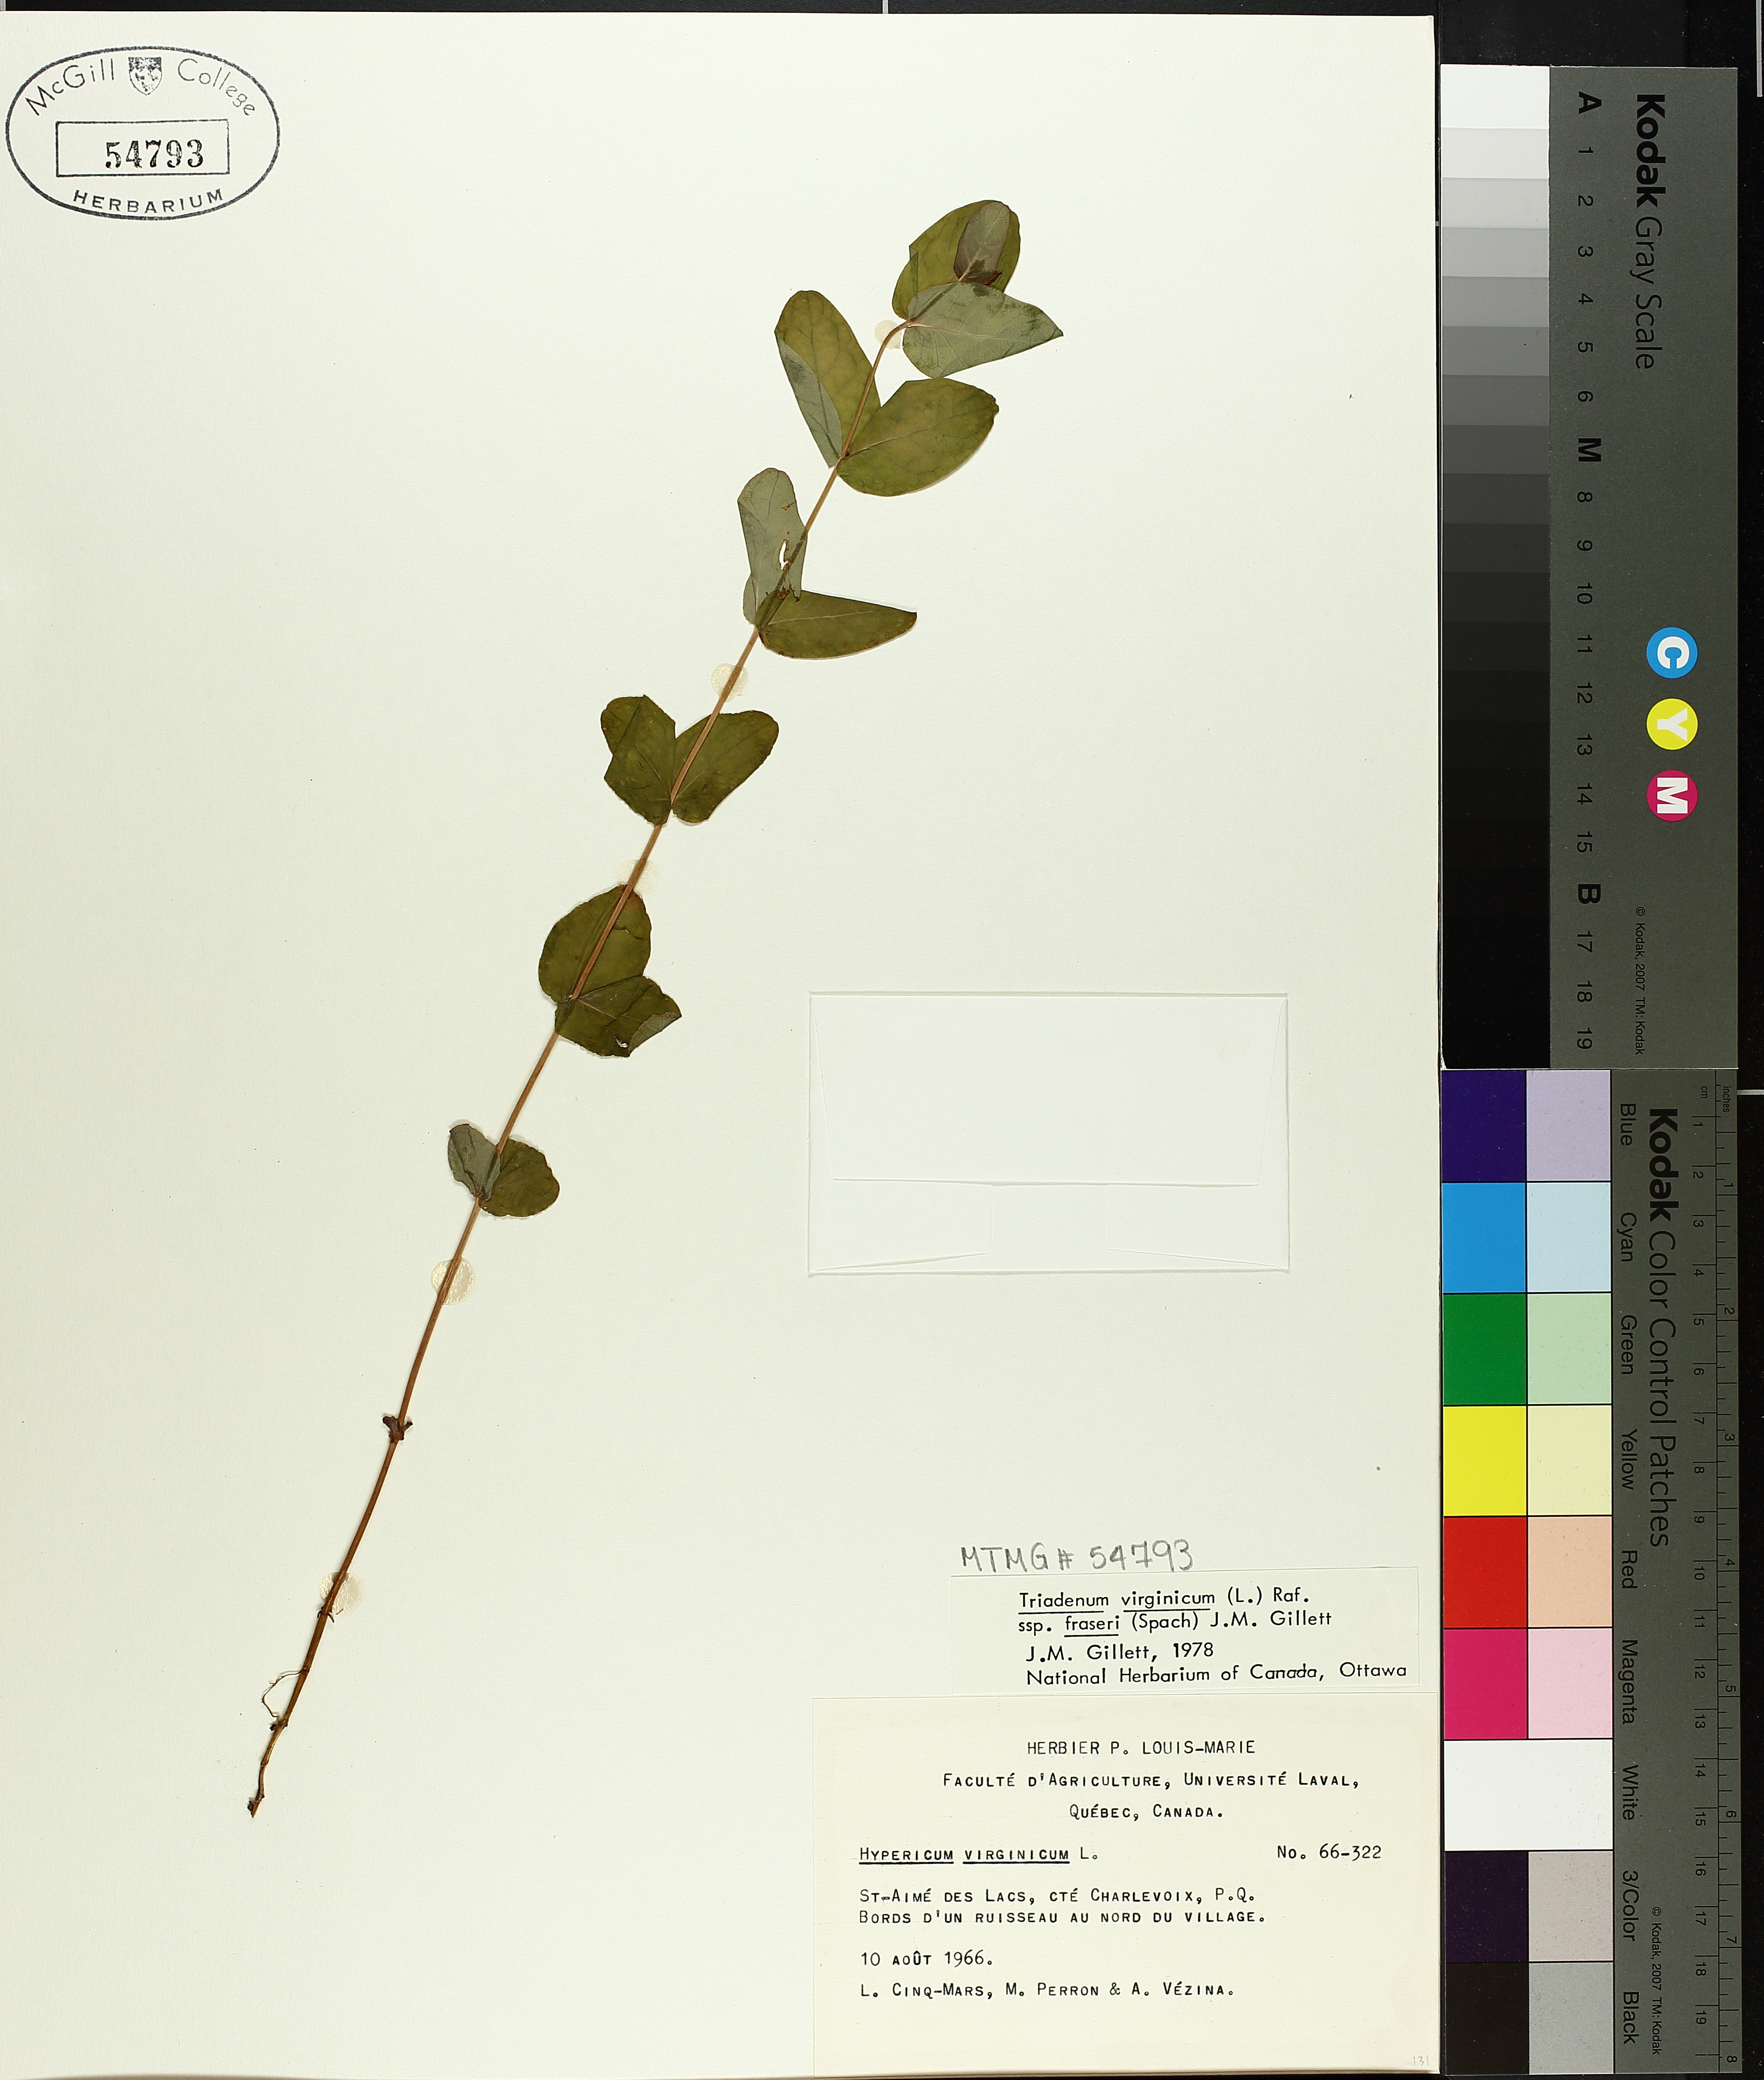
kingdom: Plantae
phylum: Tracheophyta
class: Magnoliopsida
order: Malpighiales
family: Hypericaceae
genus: Triadenum
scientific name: Triadenum fraseri
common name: Fraser's marsh st. johnswort
